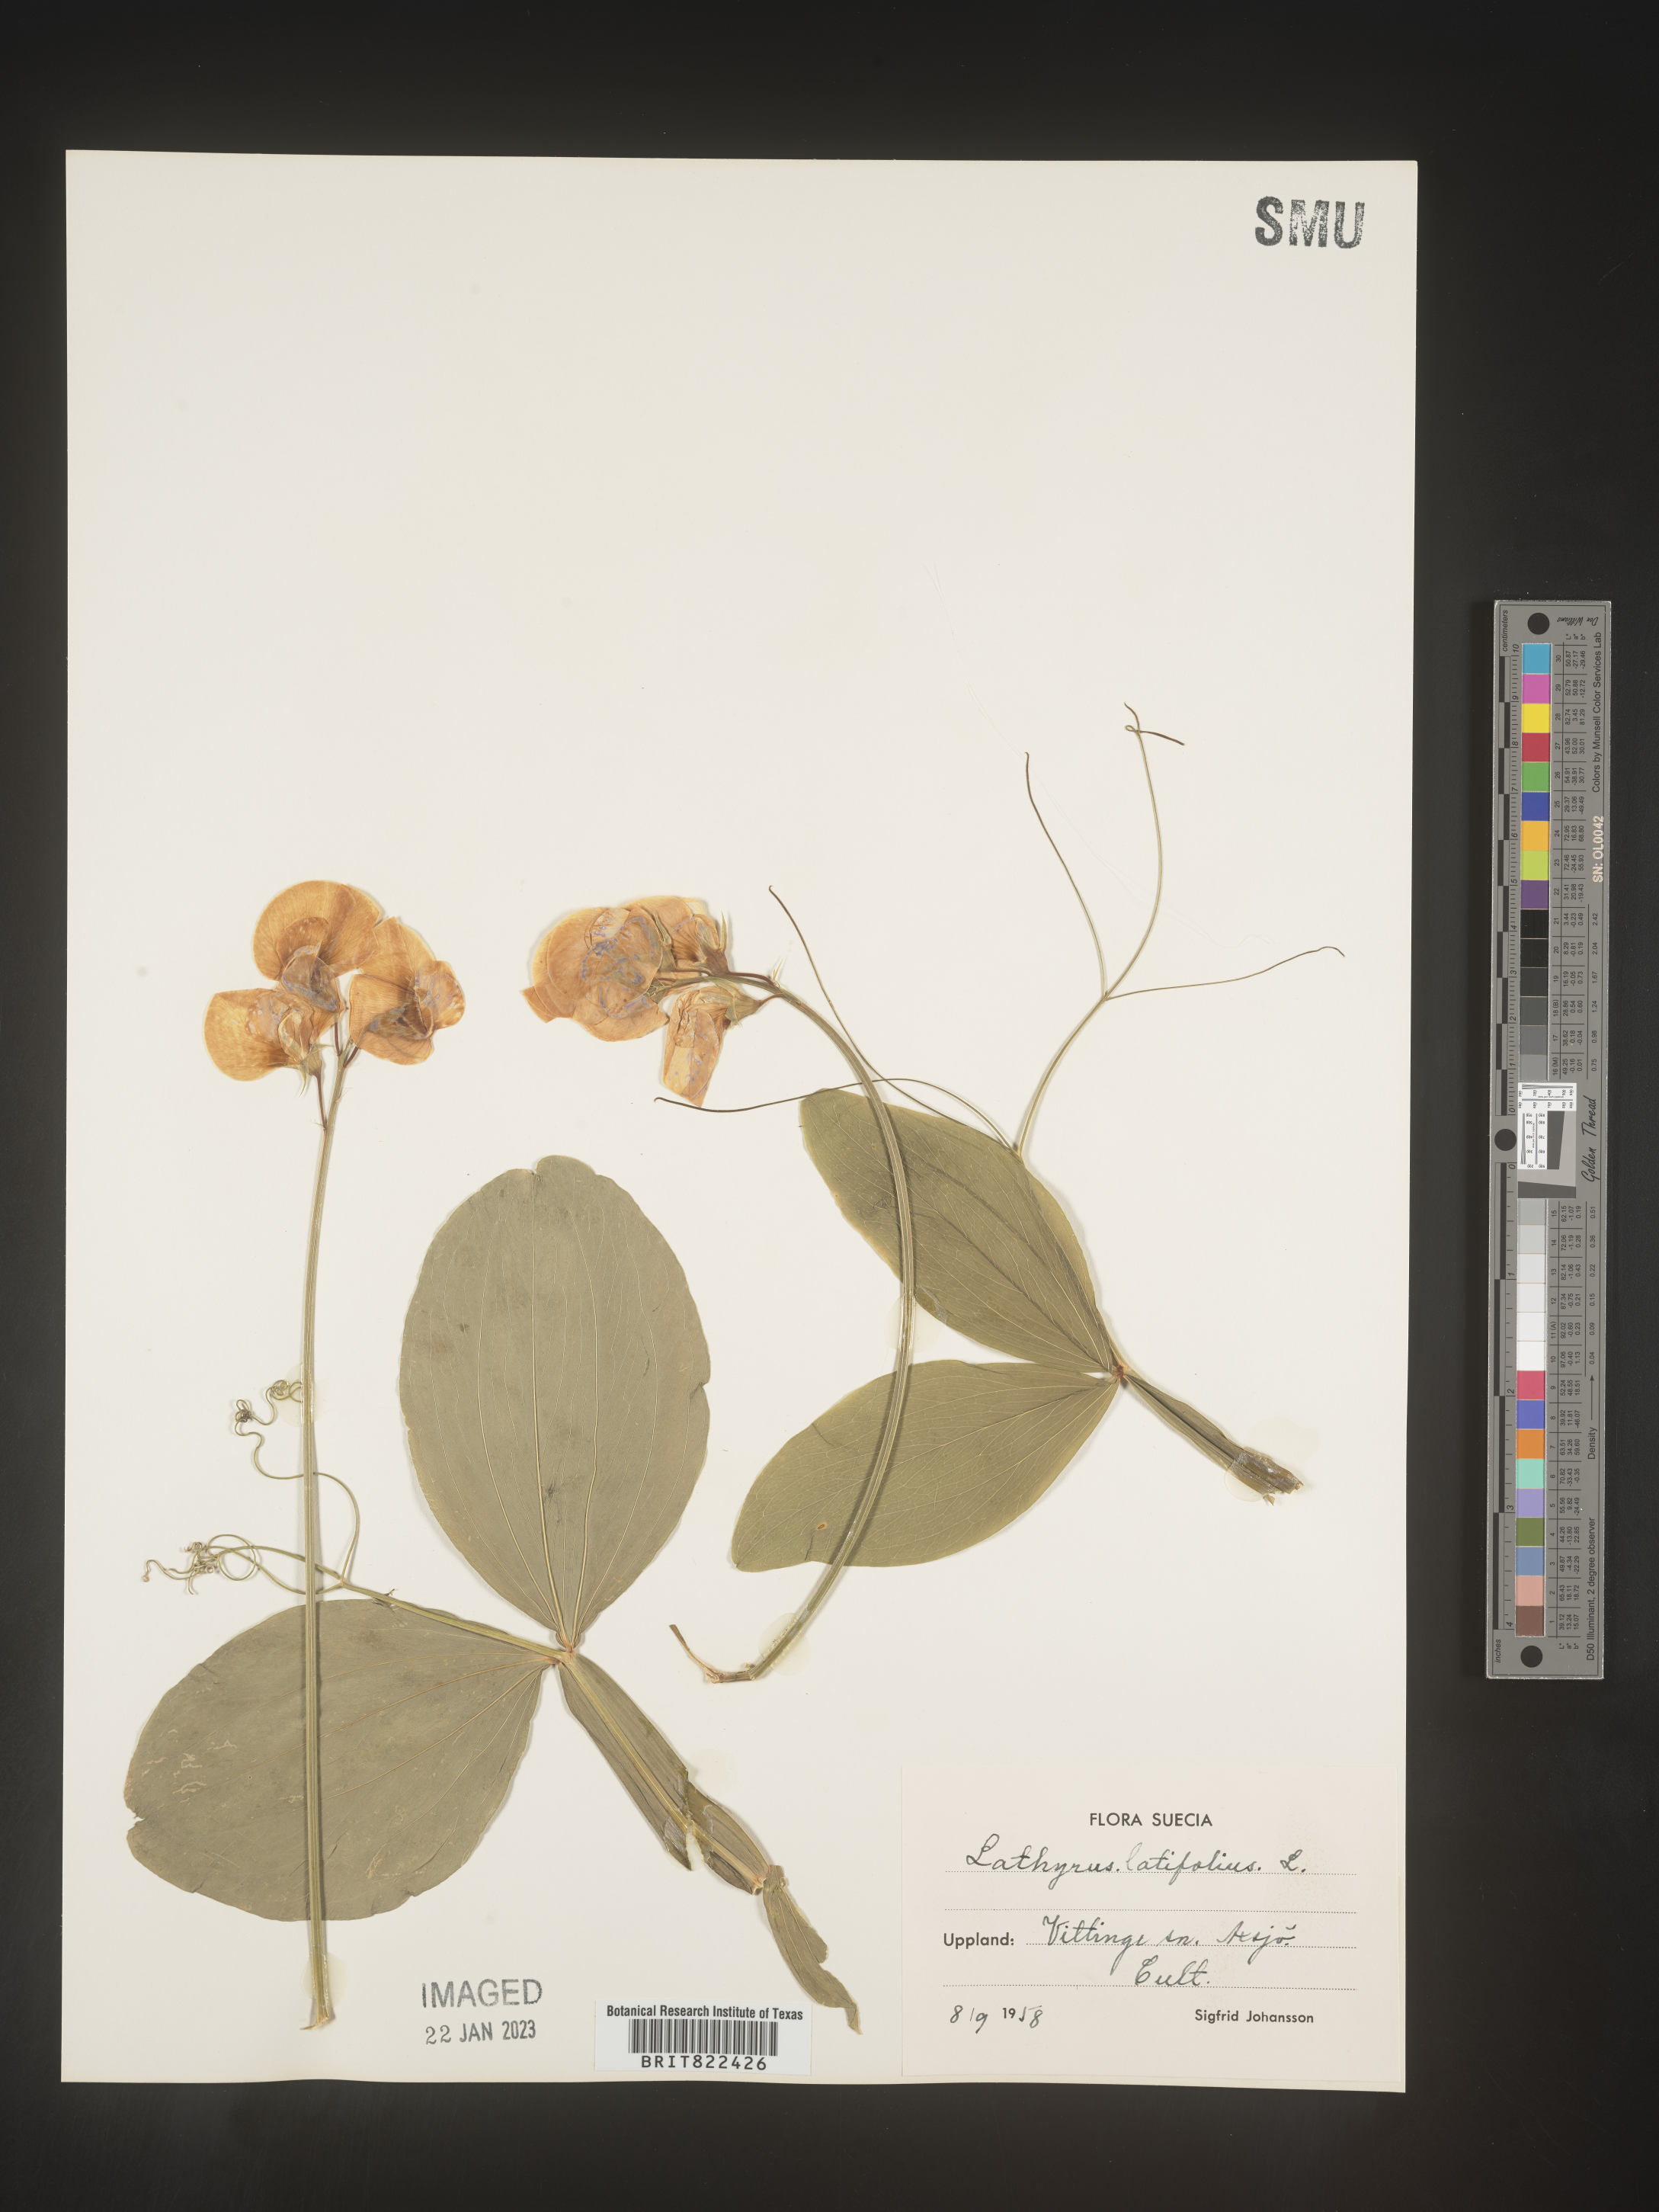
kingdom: Plantae
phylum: Tracheophyta
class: Magnoliopsida
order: Fabales
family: Fabaceae
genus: Lathyrus
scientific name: Lathyrus
